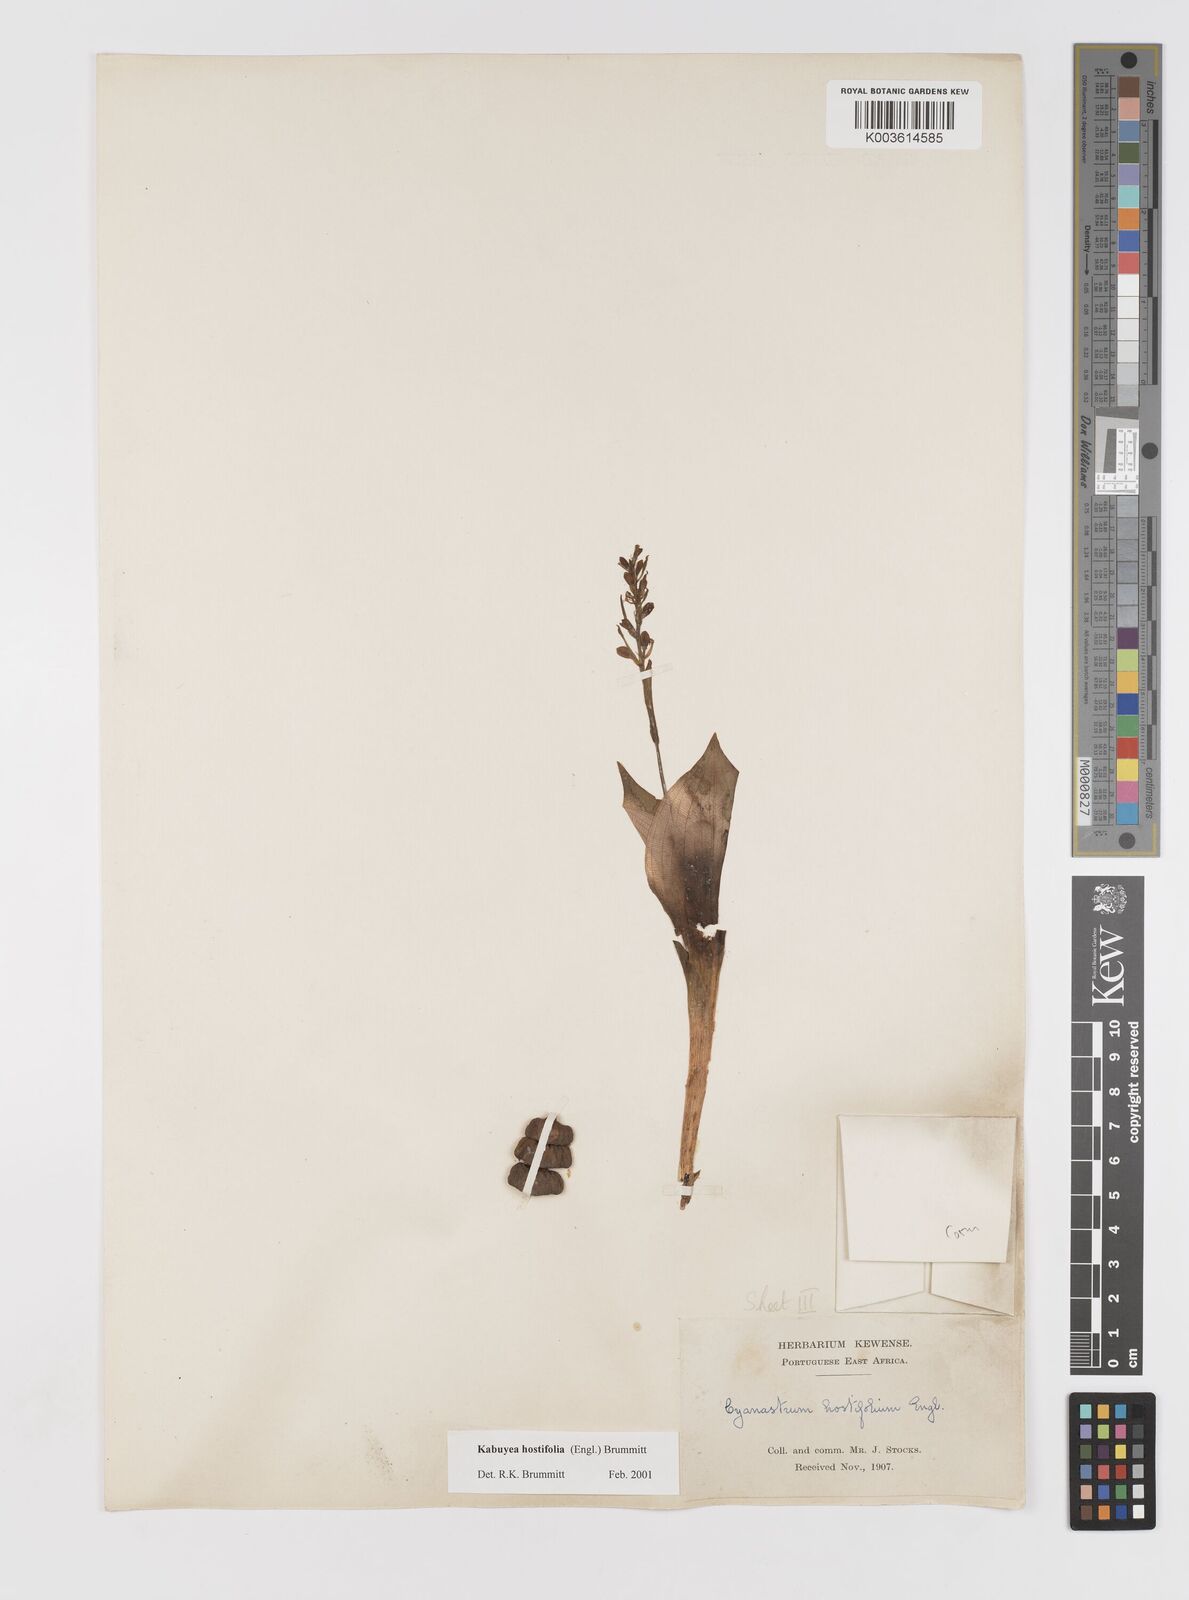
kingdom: Plantae
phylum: Tracheophyta
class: Liliopsida
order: Asparagales
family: Tecophilaeaceae
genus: Kabuyea
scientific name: Kabuyea hostifolia
